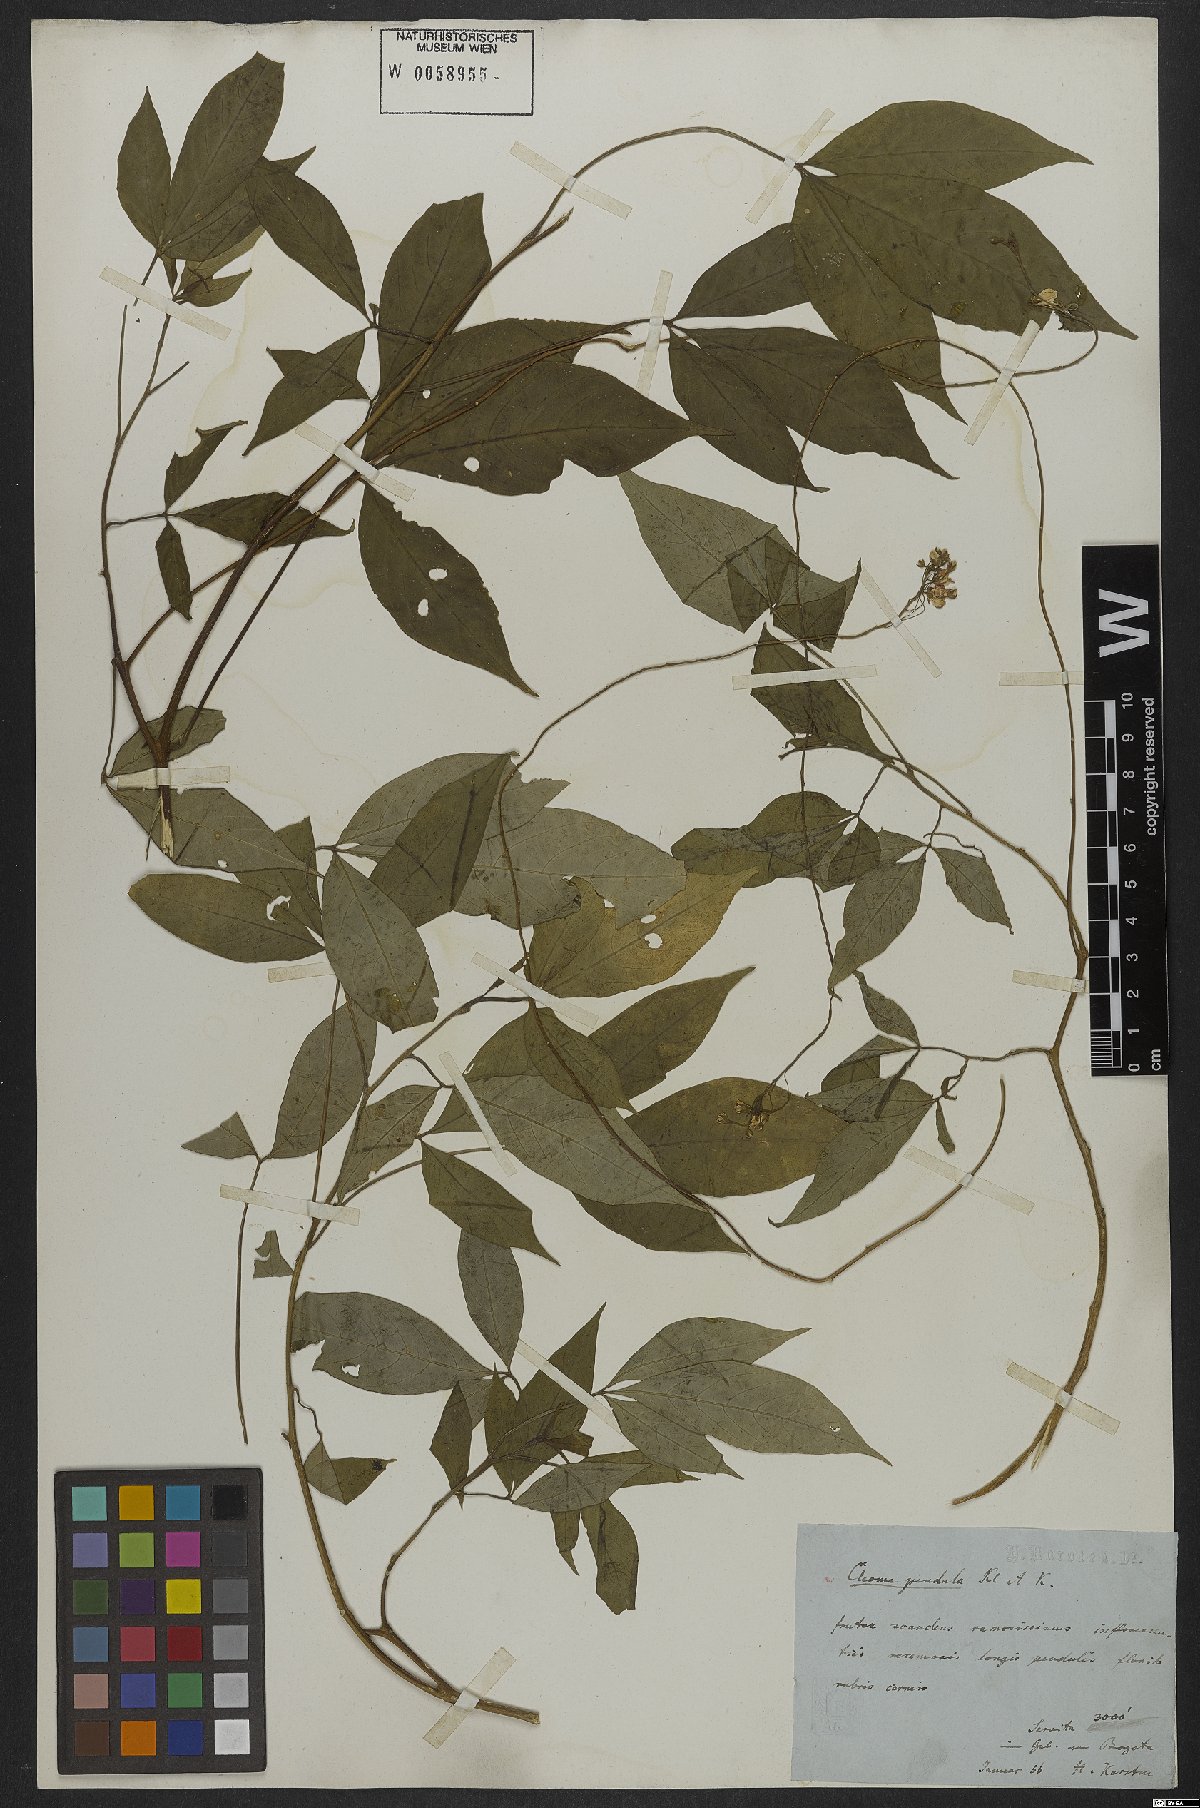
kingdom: Plantae
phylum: Tracheophyta
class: Magnoliopsida
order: Brassicales
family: Cleomaceae
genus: Cleome
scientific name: Cleome
